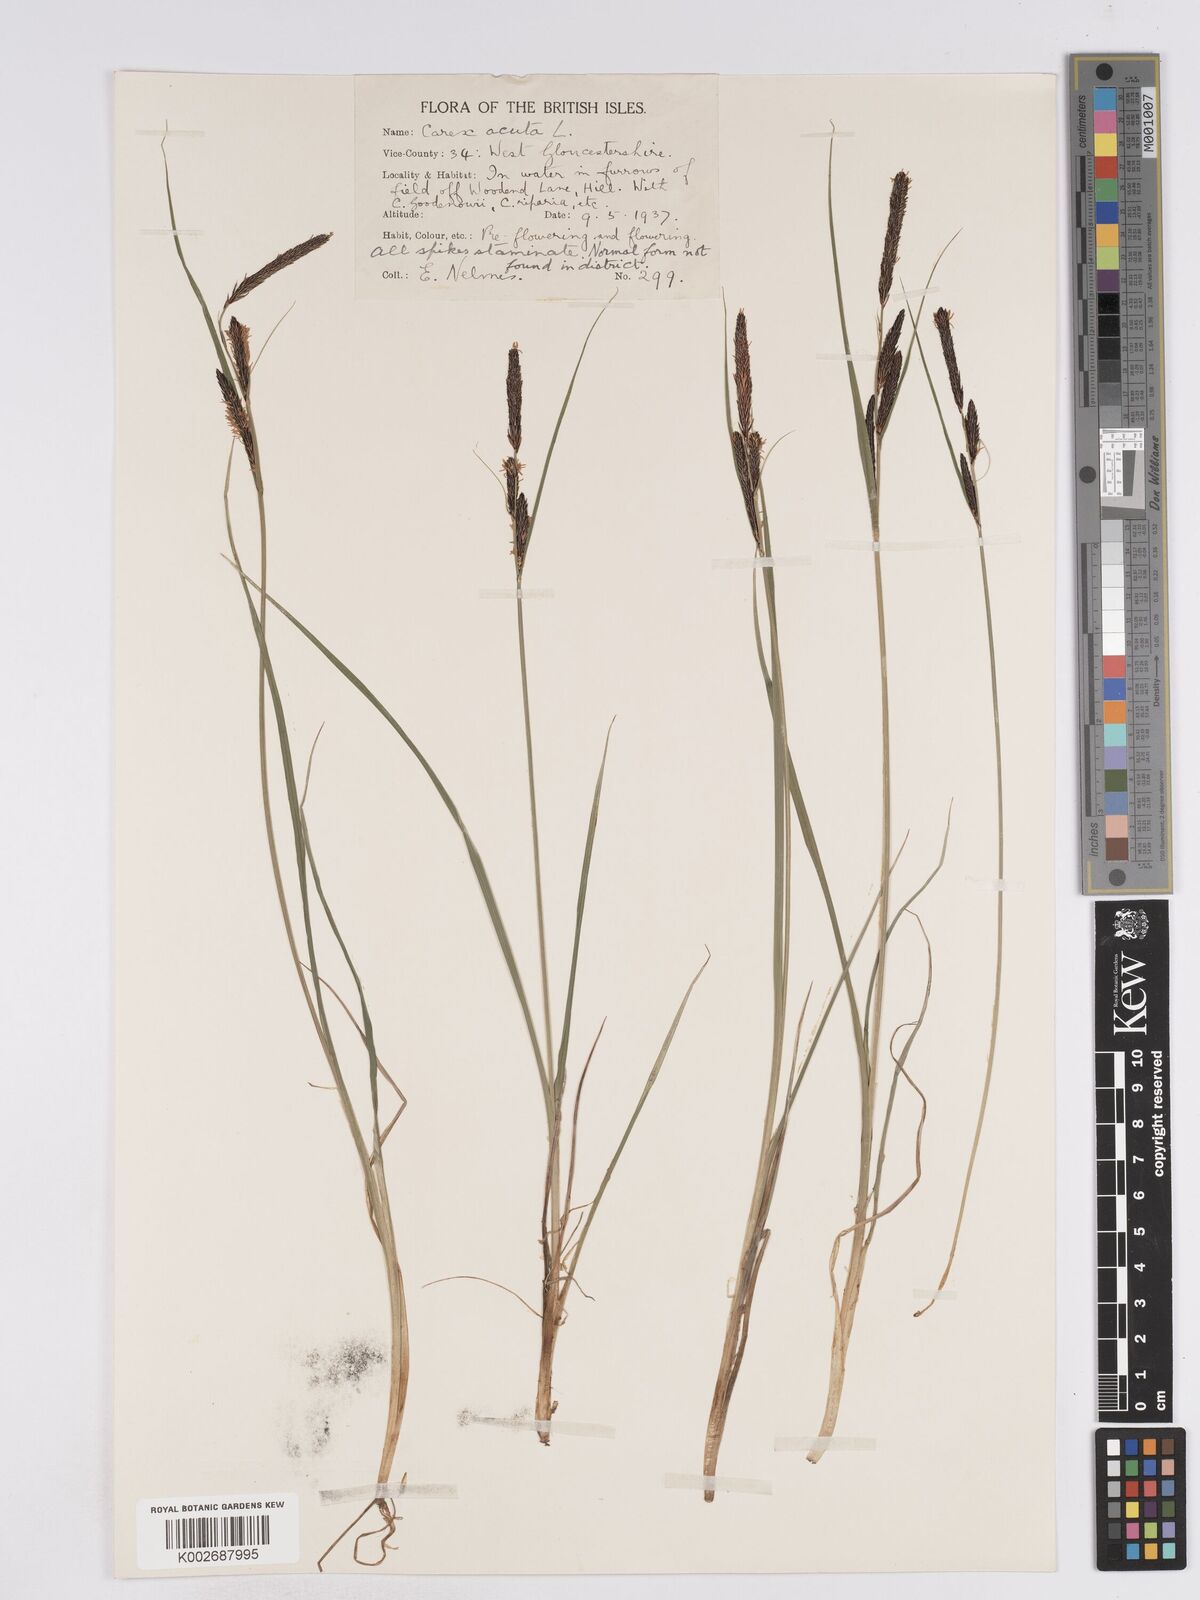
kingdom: Plantae
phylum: Tracheophyta
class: Liliopsida
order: Poales
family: Cyperaceae
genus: Carex
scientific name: Carex acuta
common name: Slender tufted-sedge
